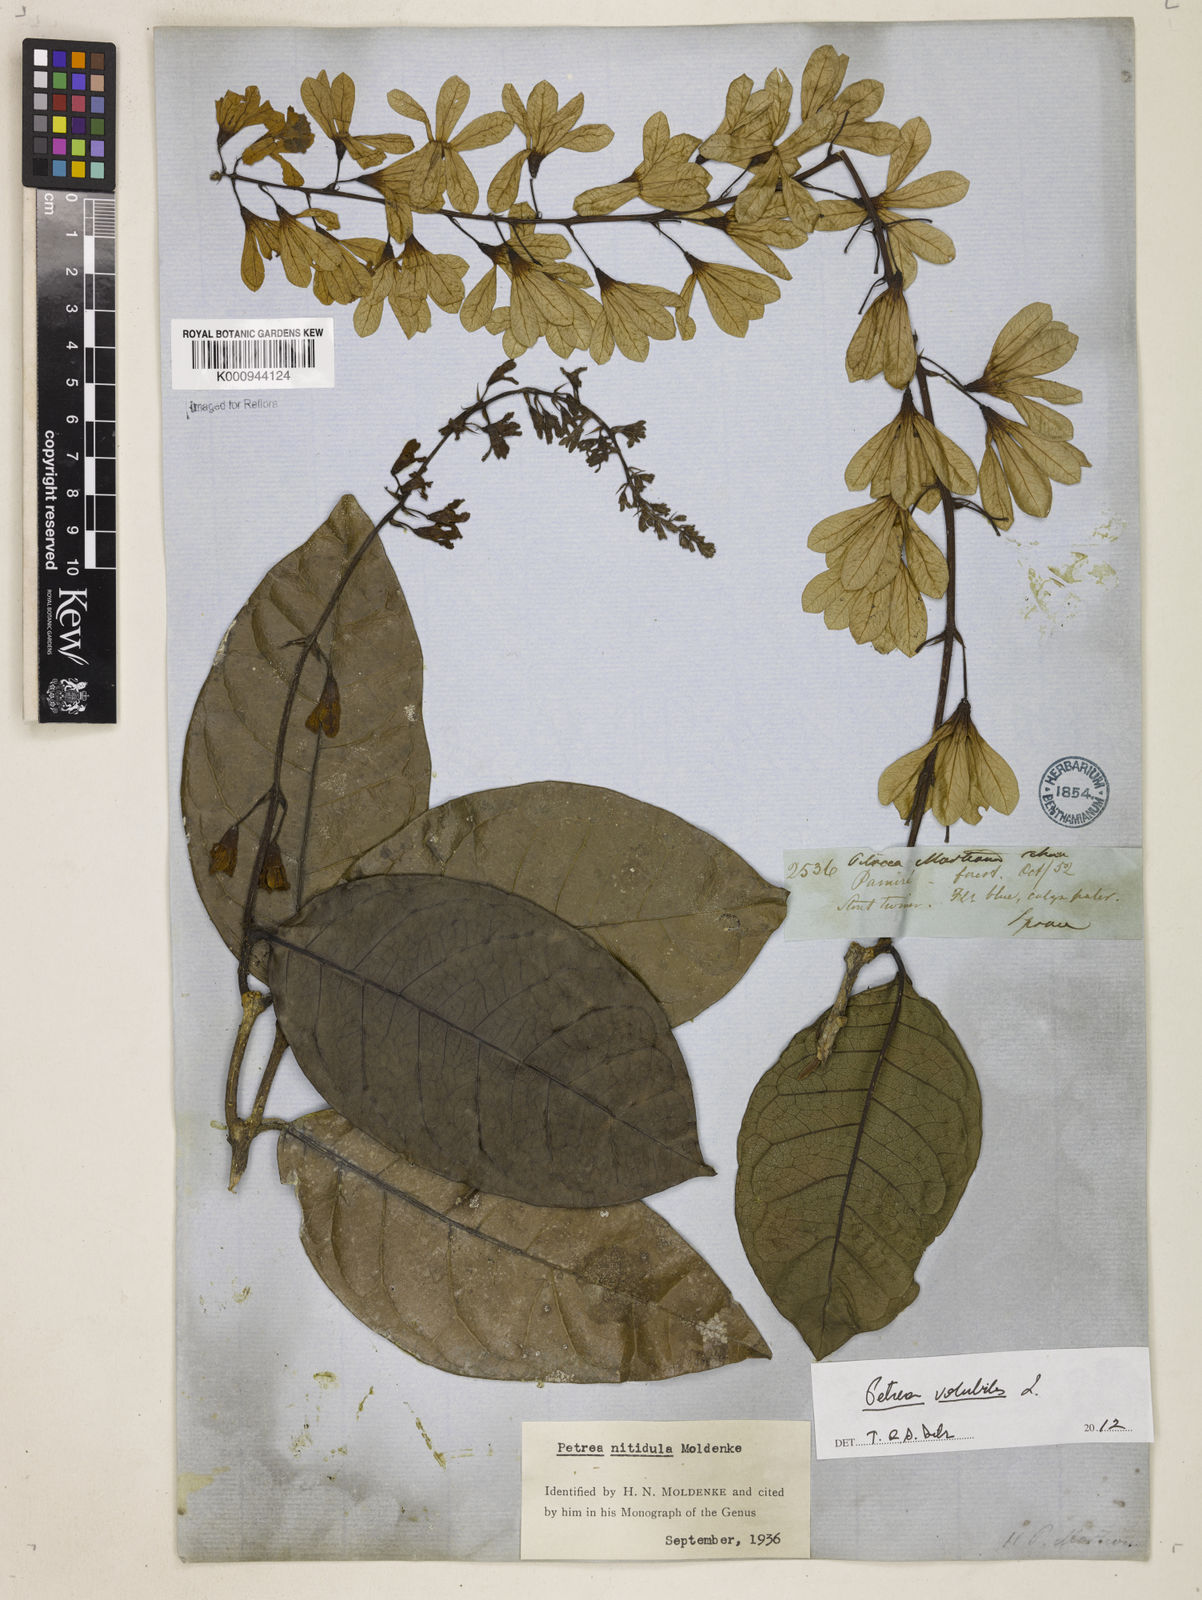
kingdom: Plantae
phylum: Tracheophyta
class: Magnoliopsida
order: Lamiales
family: Verbenaceae
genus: Petrea
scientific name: Petrea volubilis
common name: Queen's-wreath
